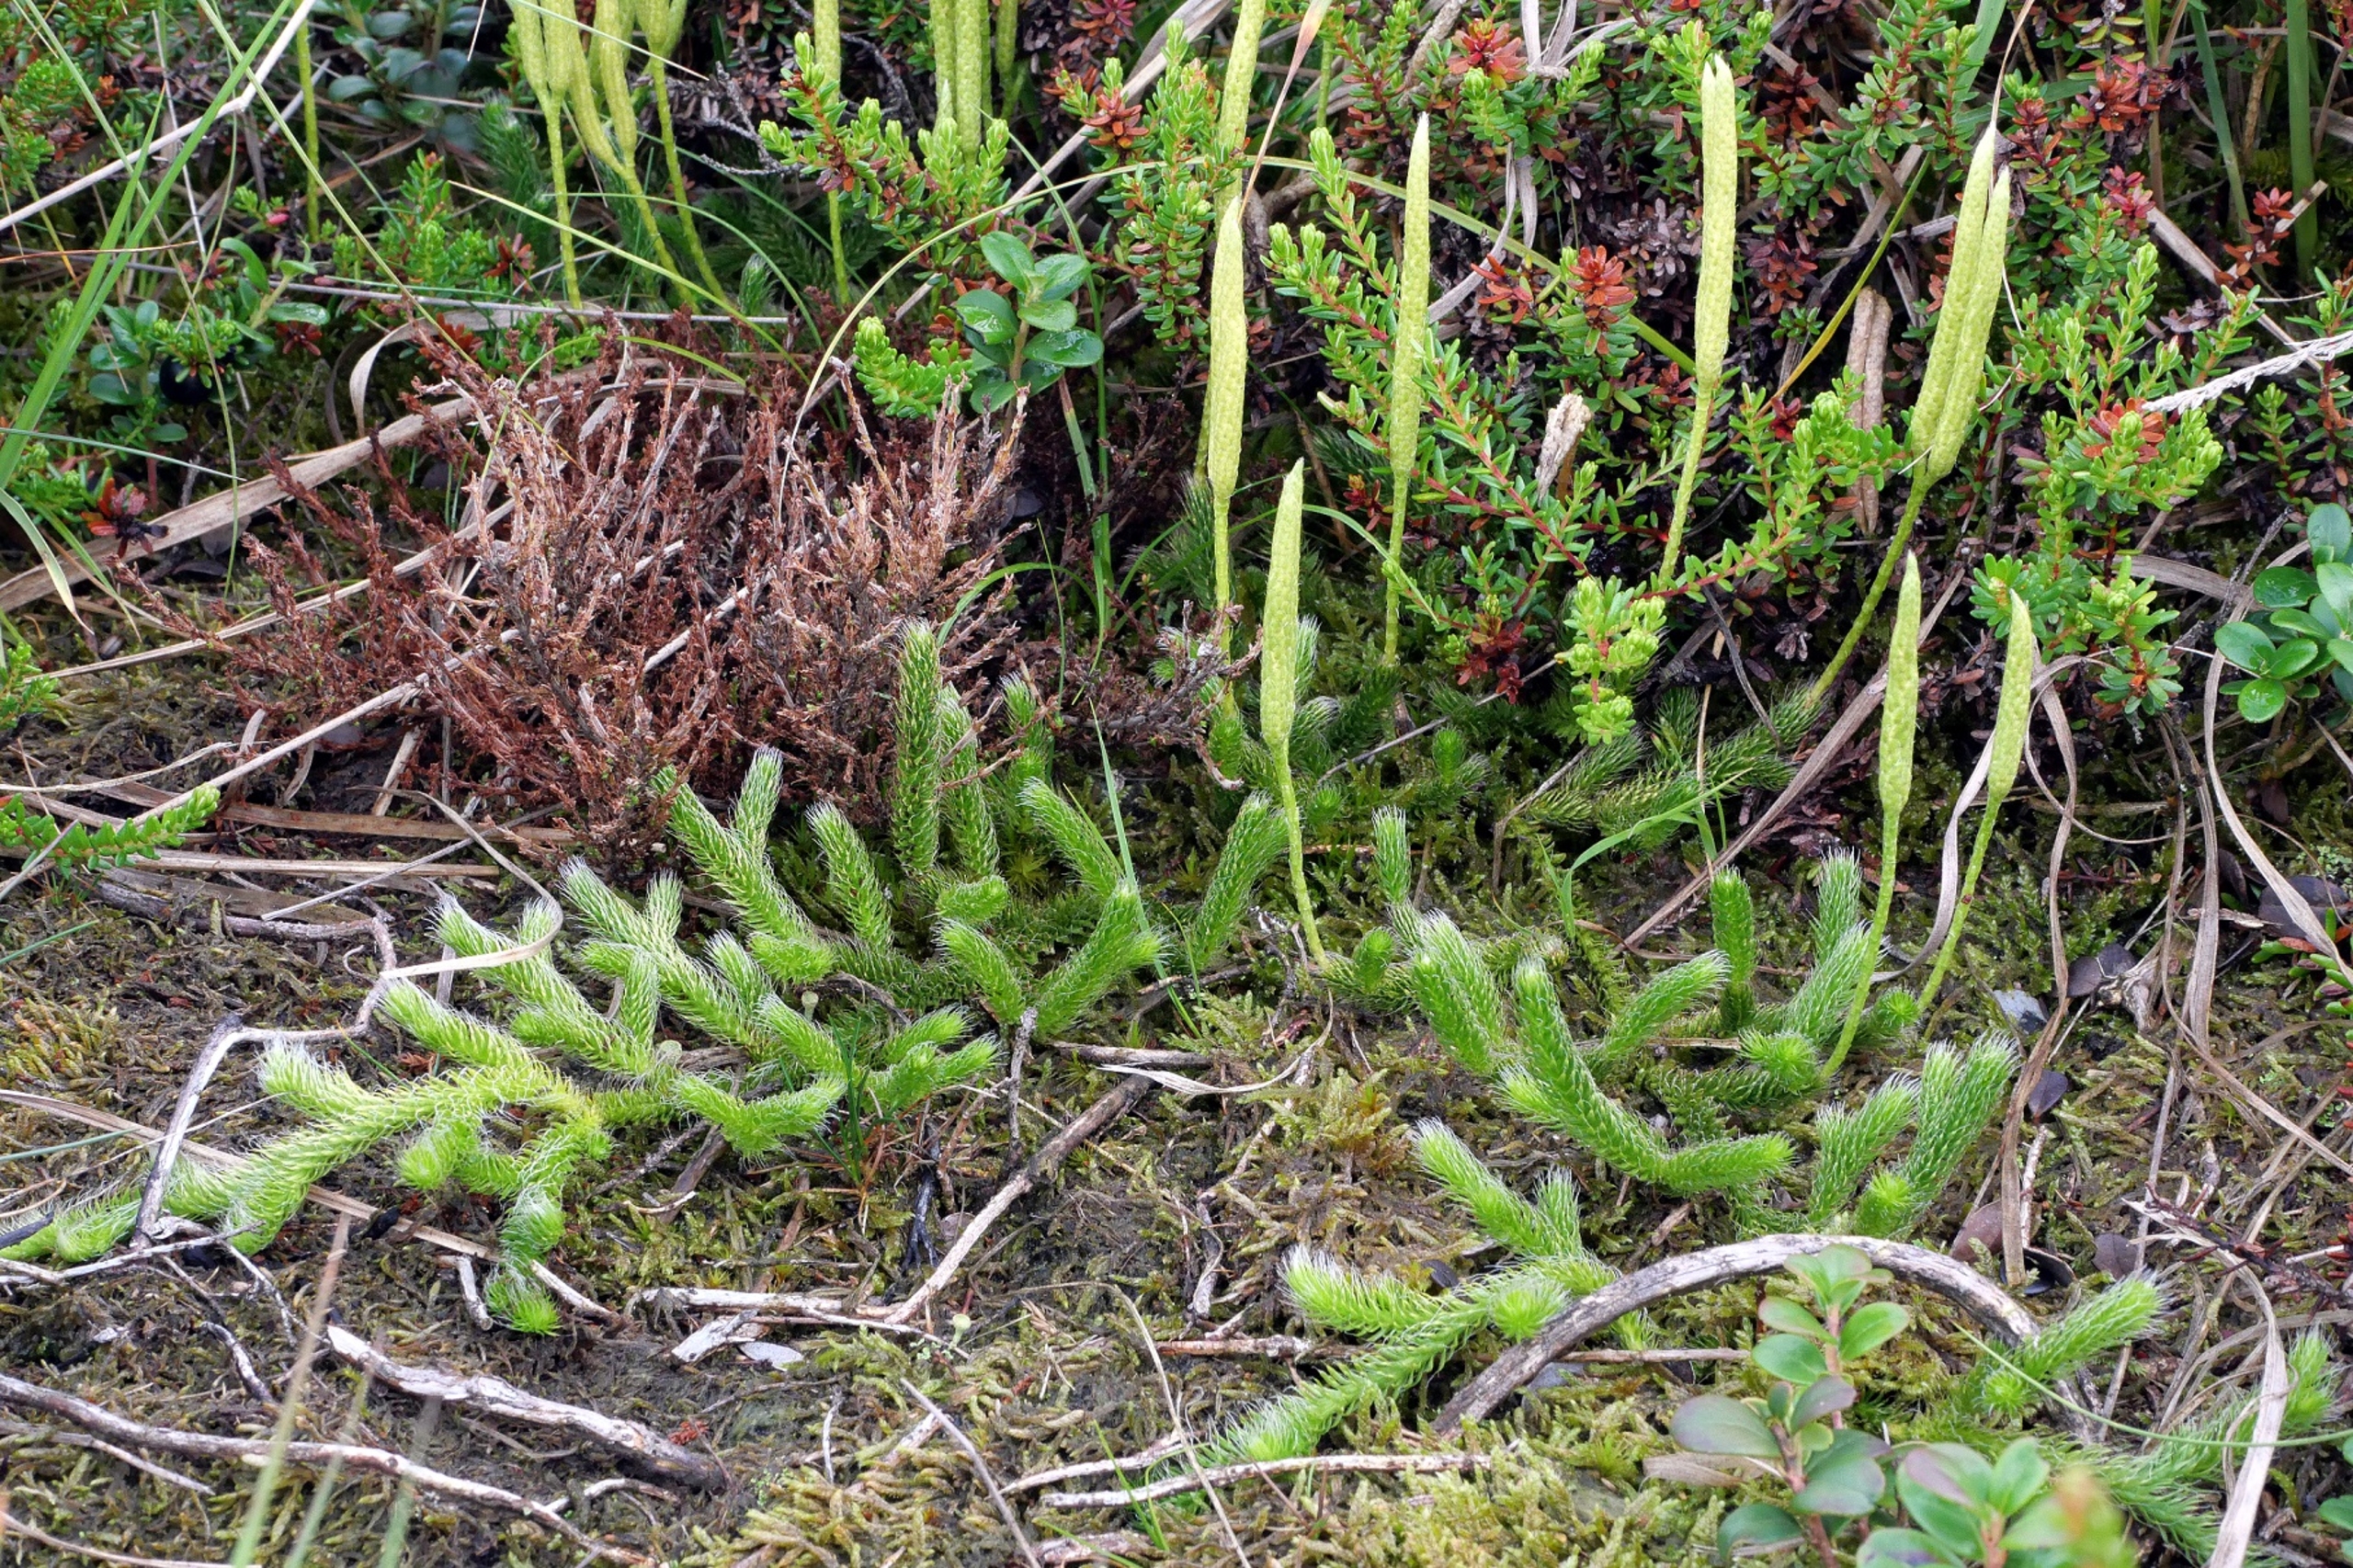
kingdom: Plantae
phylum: Tracheophyta
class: Lycopodiopsida
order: Lycopodiales
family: Lycopodiaceae
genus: Lycopodium
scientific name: Lycopodium clavatum
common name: Almindelig ulvefod
